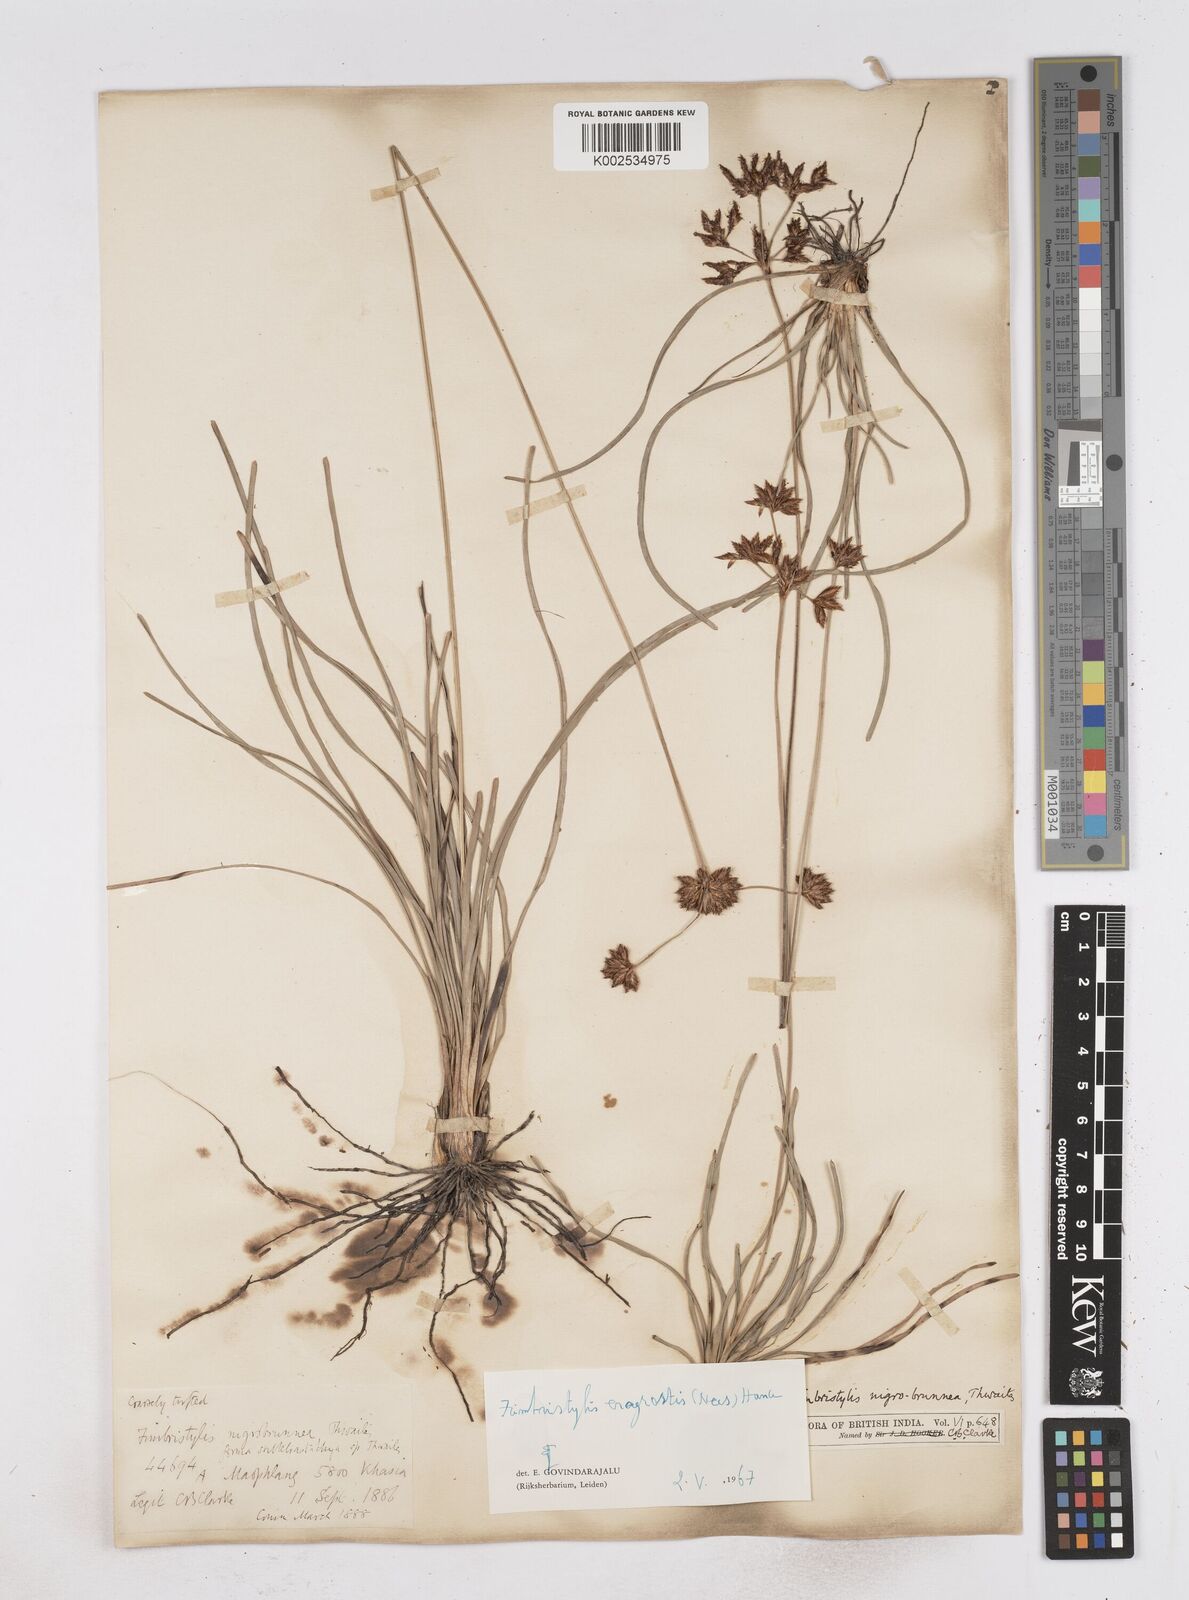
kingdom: Plantae
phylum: Tracheophyta
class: Liliopsida
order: Poales
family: Cyperaceae
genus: Fimbristylis
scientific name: Fimbristylis nigrobrunnea
